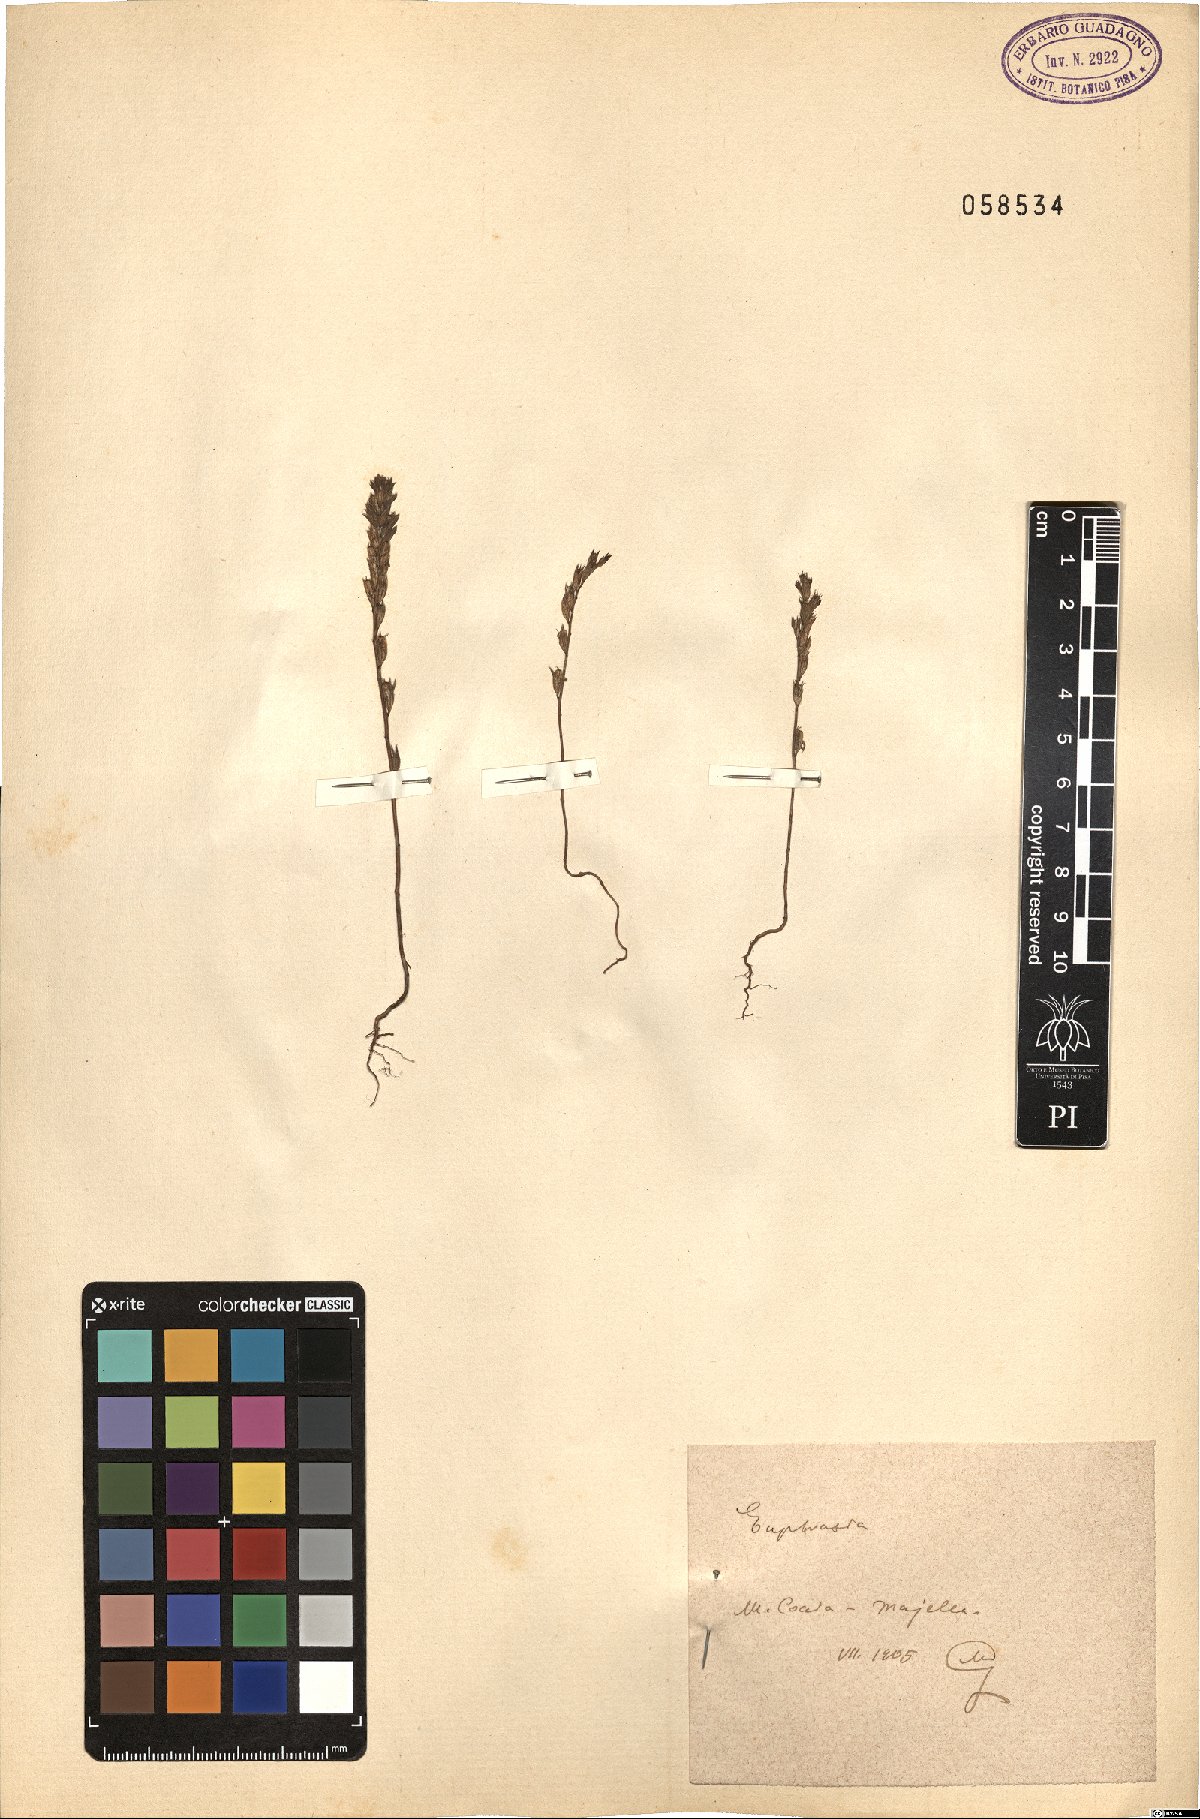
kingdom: Plantae
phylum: Tracheophyta
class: Magnoliopsida
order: Lamiales
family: Orobanchaceae
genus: Euphrasia
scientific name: Euphrasia
